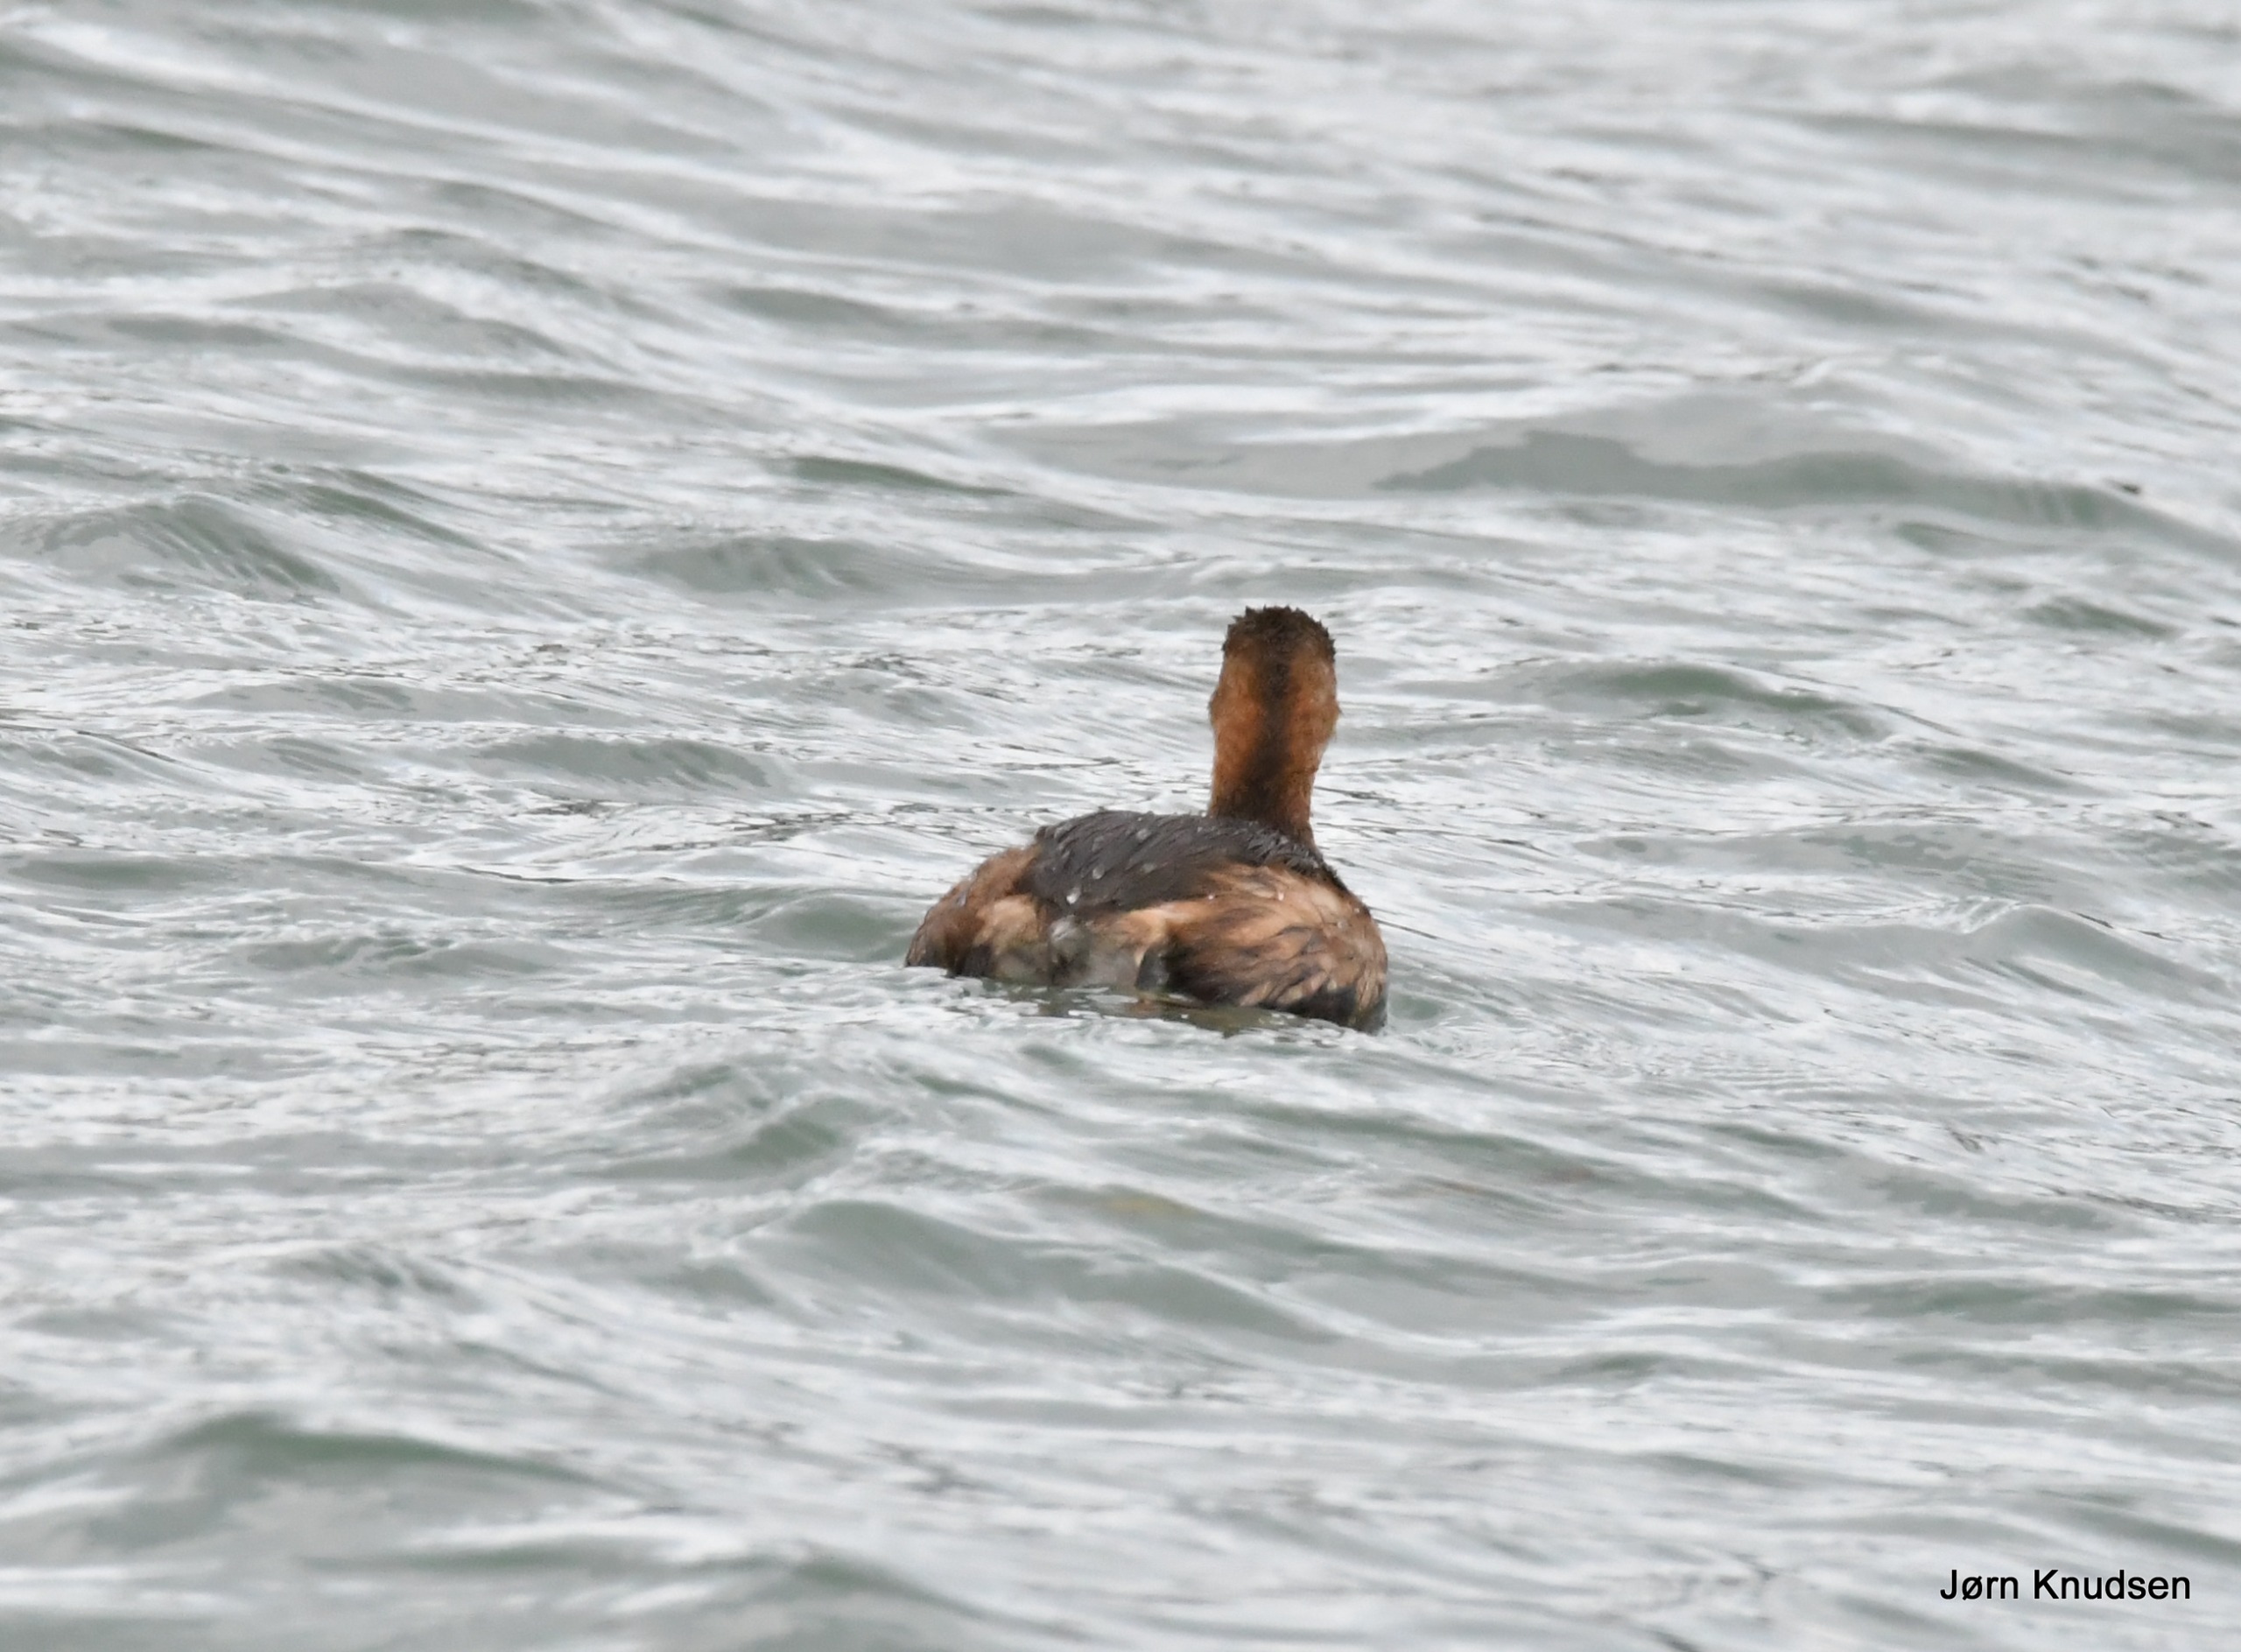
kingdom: Animalia
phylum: Chordata
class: Aves
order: Podicipediformes
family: Podicipedidae
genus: Tachybaptus
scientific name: Tachybaptus ruficollis
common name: Lille lappedykker
